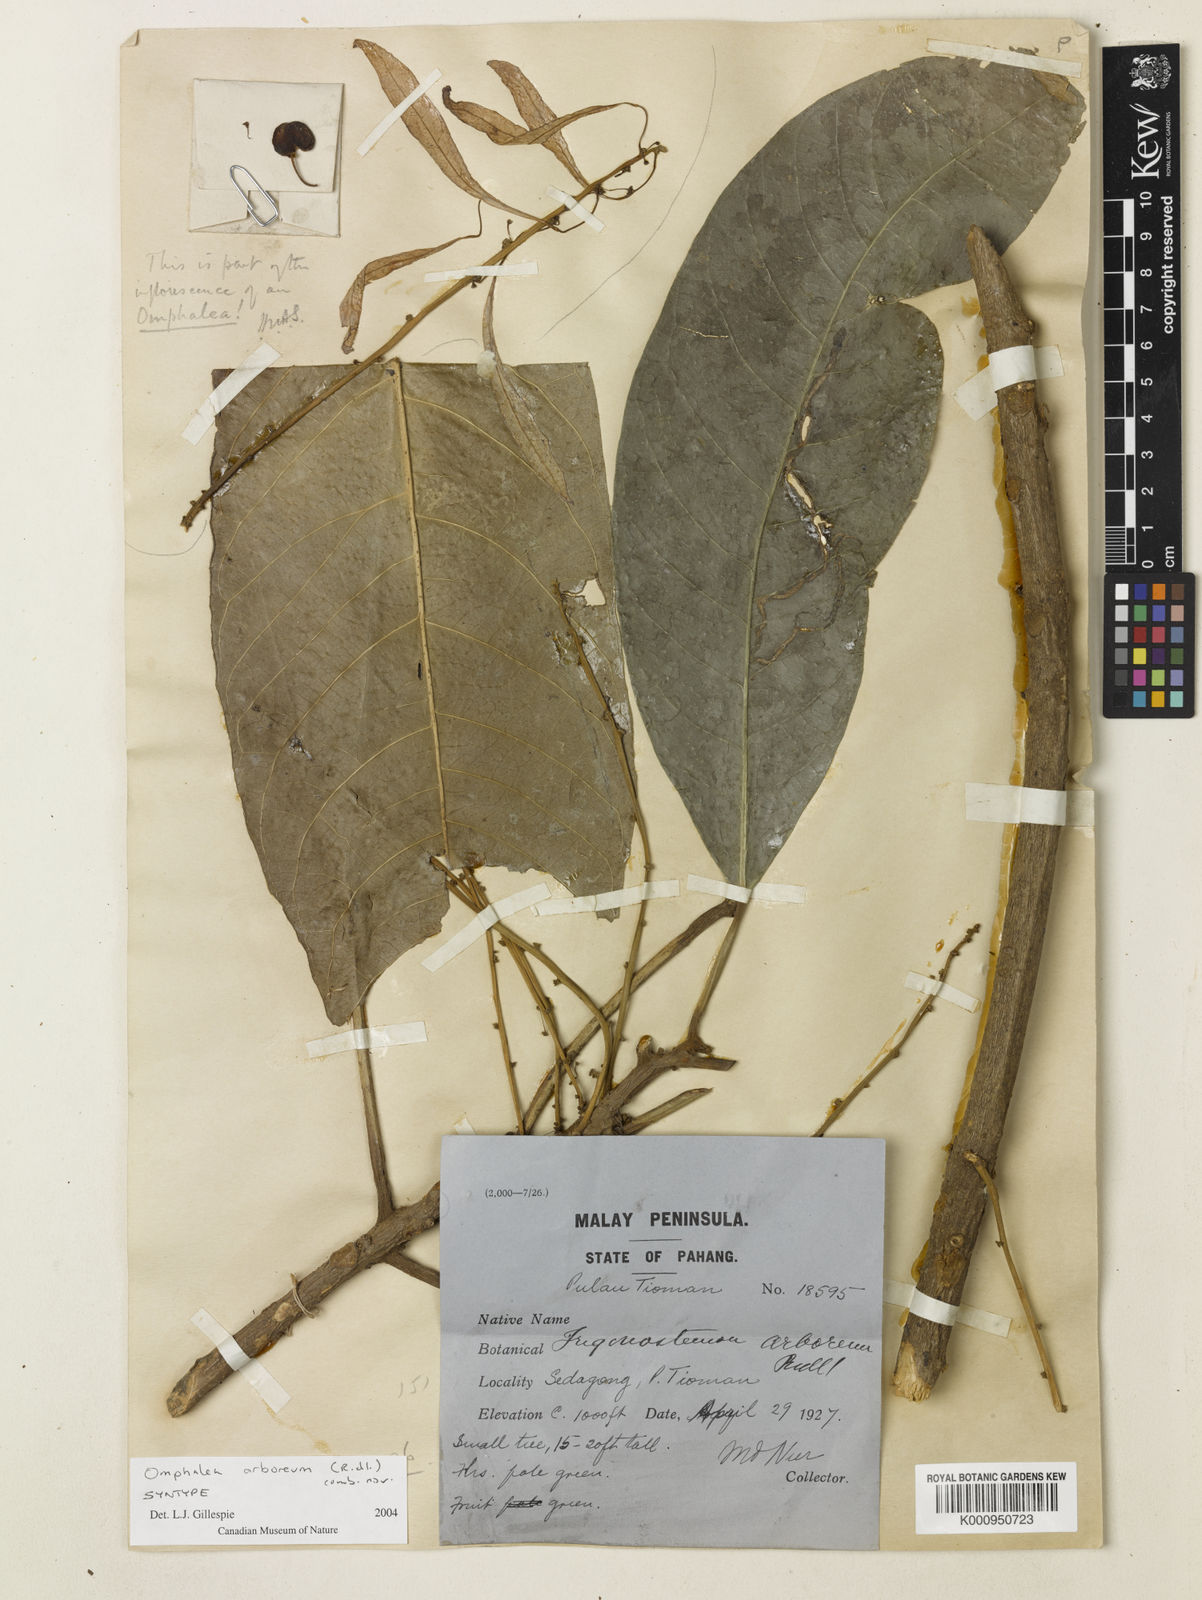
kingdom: Plantae
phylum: Tracheophyta
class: Magnoliopsida
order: Malpighiales
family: Euphorbiaceae
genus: Omphalea
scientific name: Omphalea
